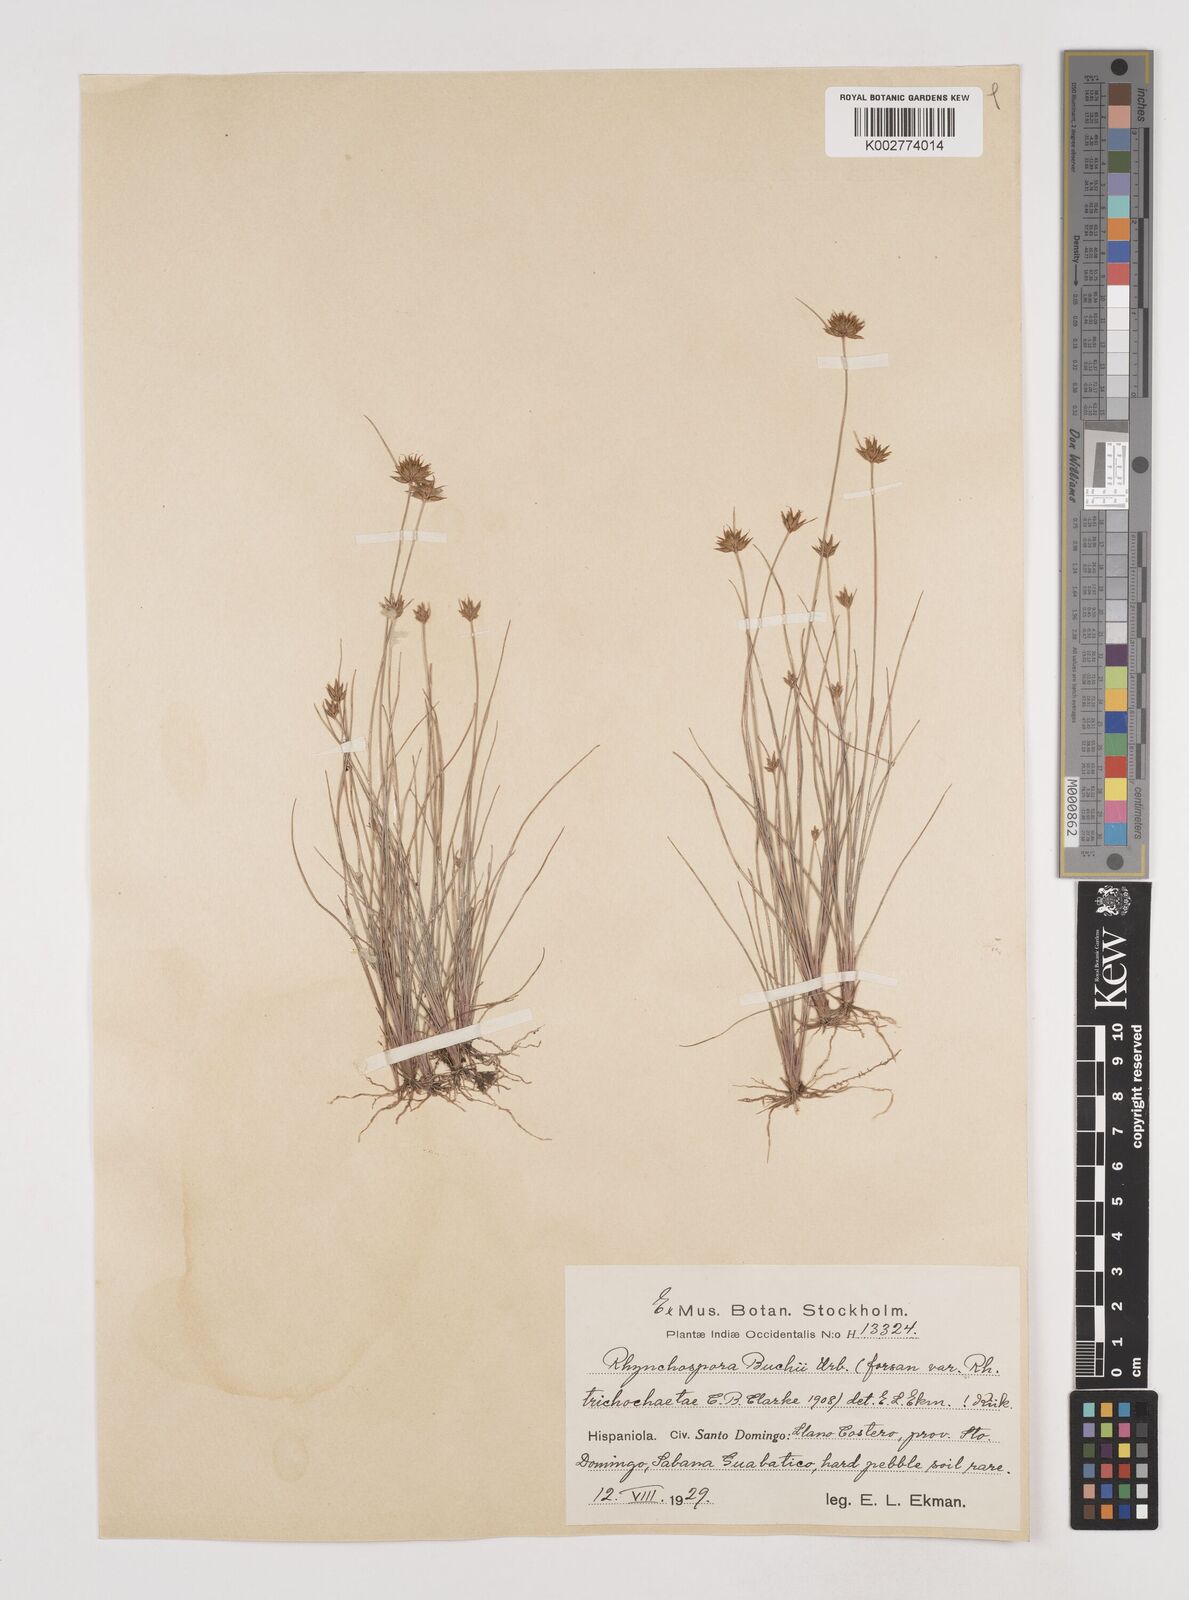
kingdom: Plantae
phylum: Tracheophyta
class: Liliopsida
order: Poales
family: Cyperaceae
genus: Rhynchospora
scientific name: Rhynchospora mexicana
